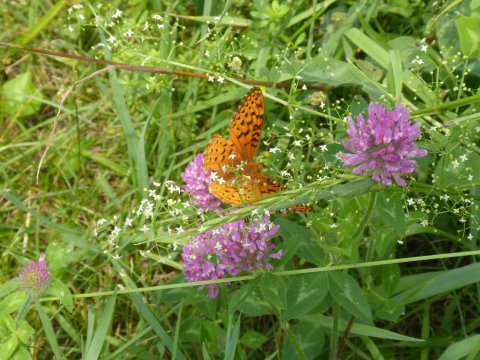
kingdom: Animalia
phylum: Arthropoda
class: Insecta
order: Lepidoptera
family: Nymphalidae
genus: Speyeria
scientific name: Speyeria cybele
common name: Great Spangled Fritillary
